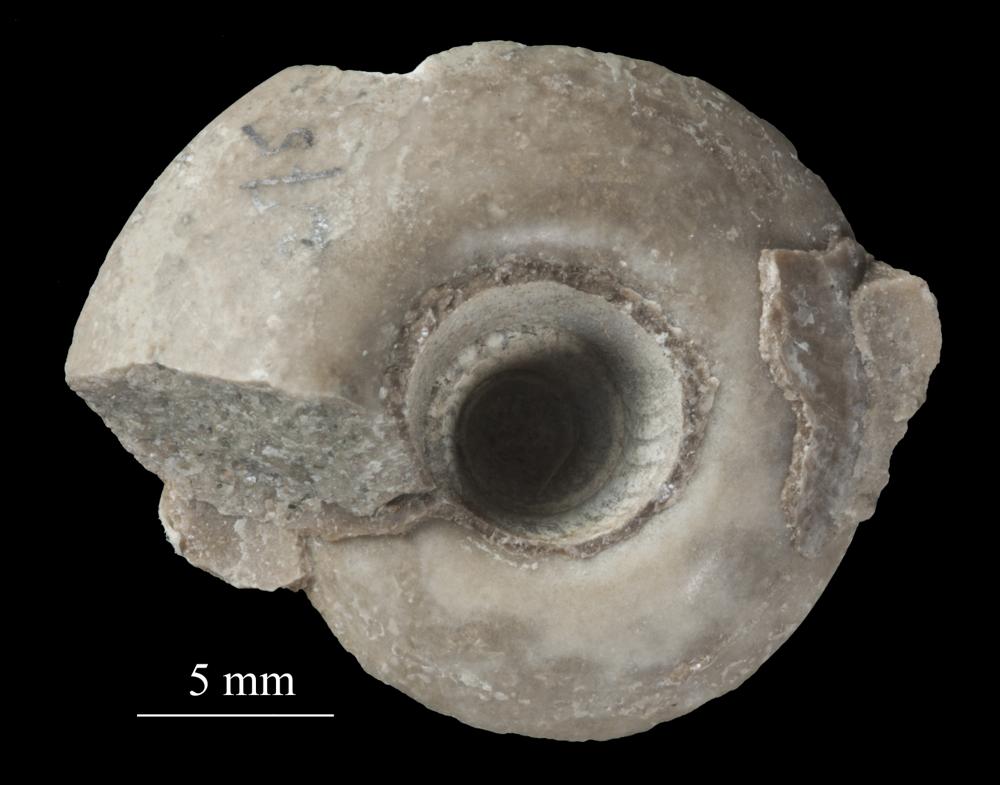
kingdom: Animalia
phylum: Mollusca
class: Gastropoda
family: Lesueurillidae
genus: Pararaphistoma
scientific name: Pararaphistoma Helicites qualteriata
